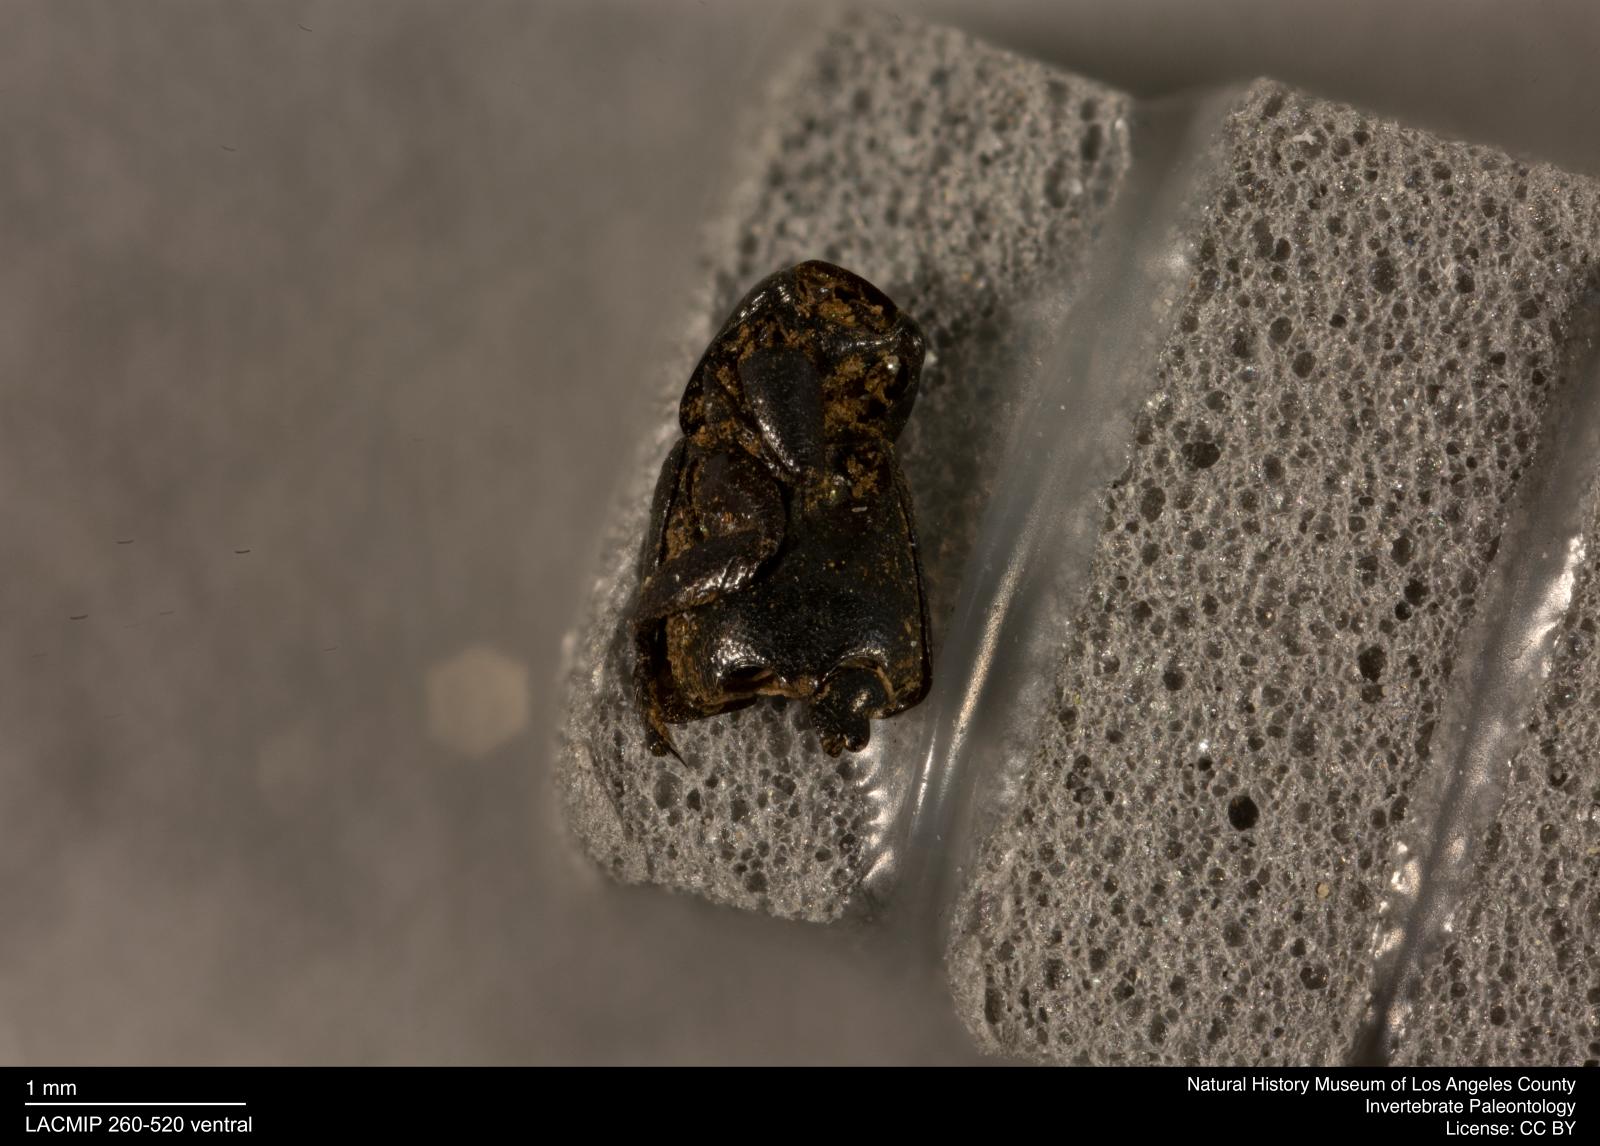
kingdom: Animalia
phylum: Arthropoda
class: Insecta
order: Coleoptera
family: Staphylinidae
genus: Philonthus
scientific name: Philonthus
